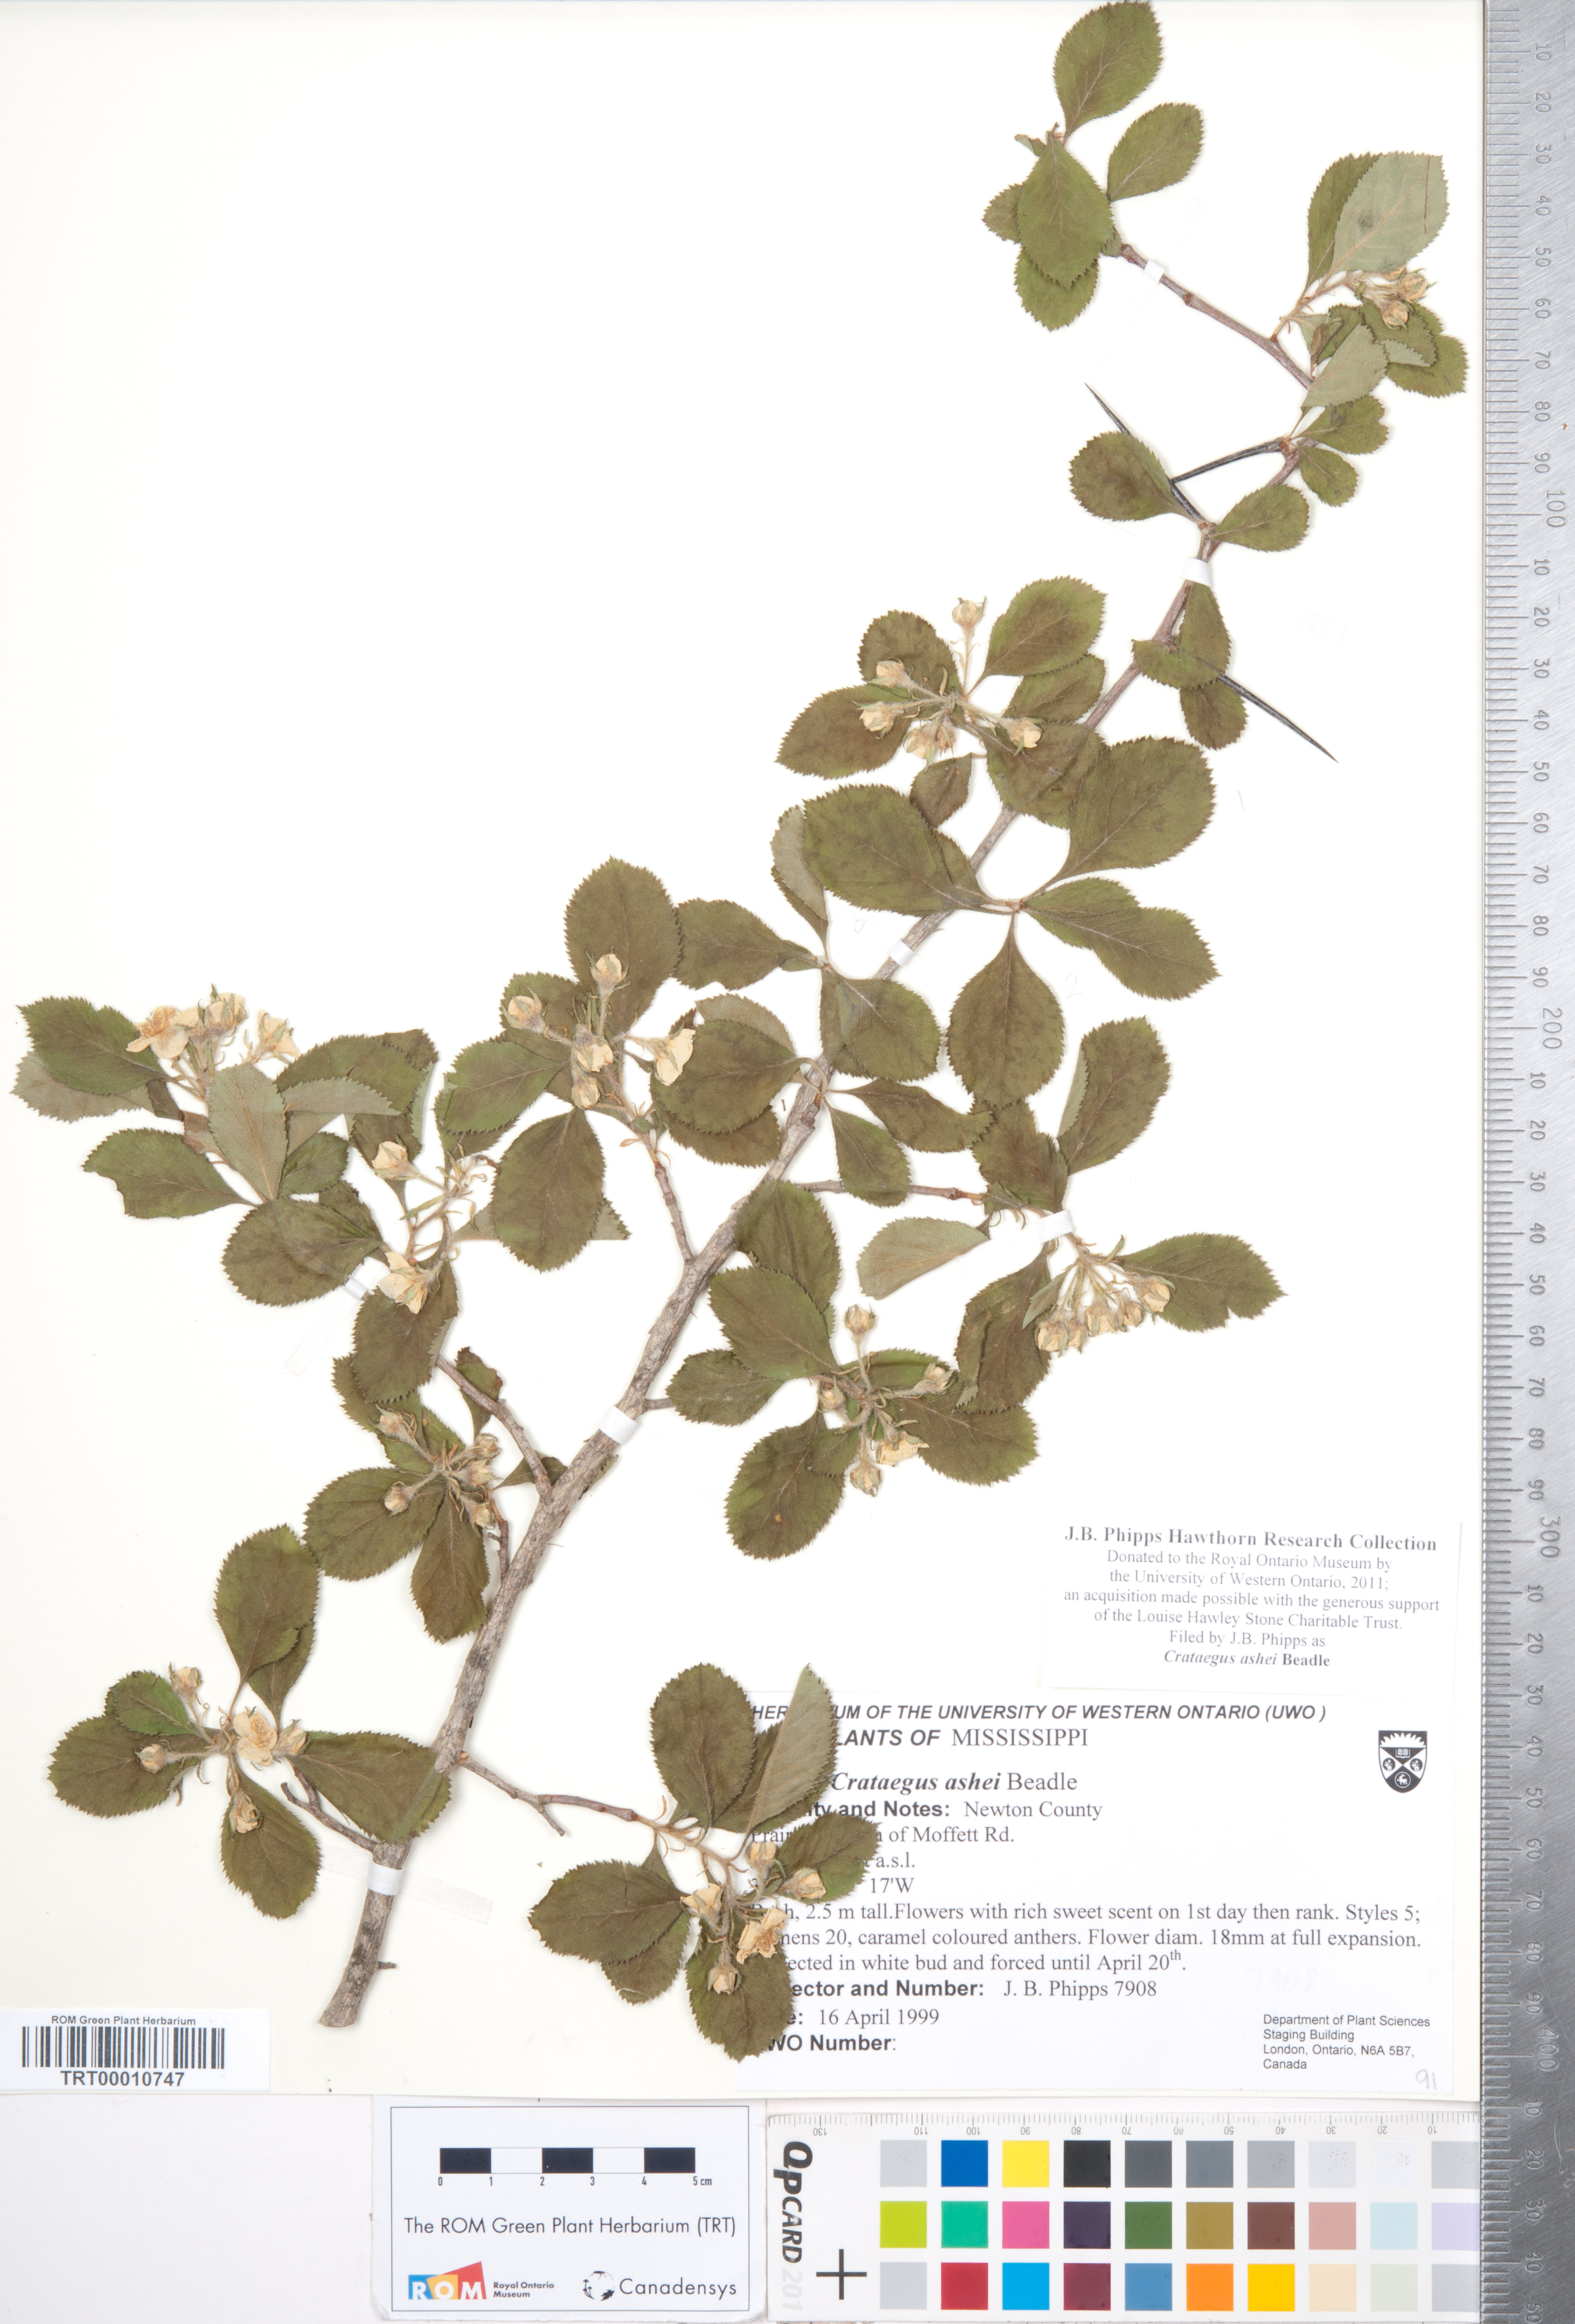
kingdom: Plantae
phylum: Tracheophyta
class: Magnoliopsida
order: Rosales
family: Rosaceae
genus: Crataegus
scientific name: Crataegus ashei
